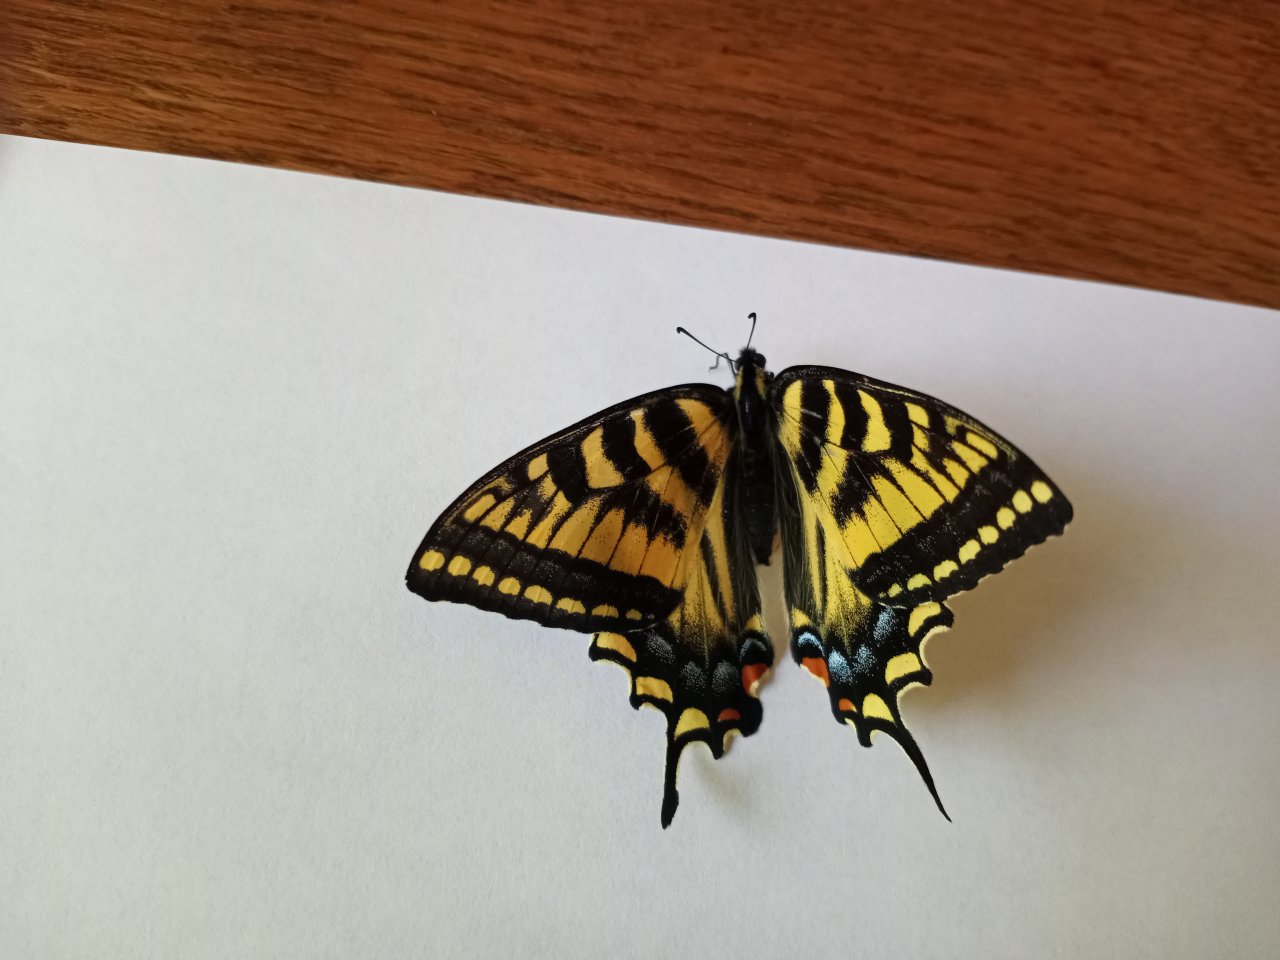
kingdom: Animalia
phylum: Arthropoda
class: Insecta
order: Lepidoptera
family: Papilionidae
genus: Pterourus
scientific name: Pterourus canadensis
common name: Canadian Tiger Swallowtail
